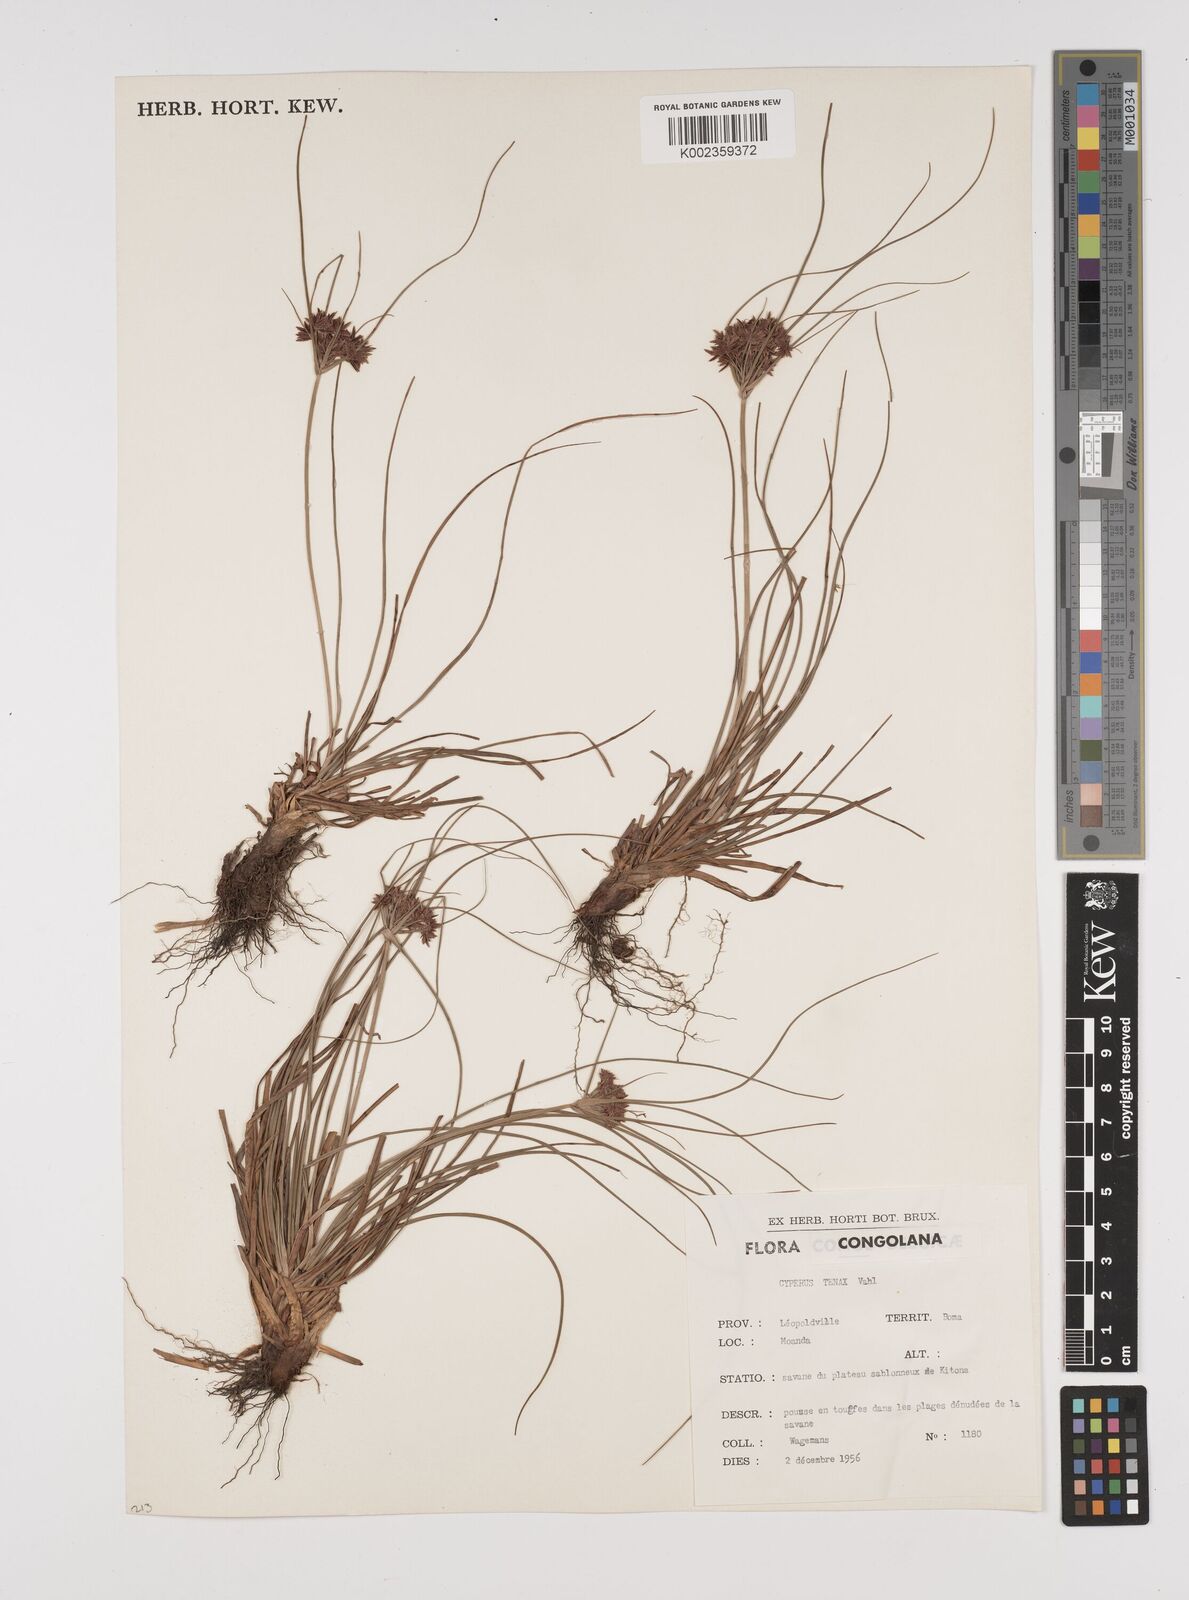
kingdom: Plantae
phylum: Tracheophyta
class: Liliopsida
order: Poales
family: Cyperaceae
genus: Cyperus
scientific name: Cyperus tenax
